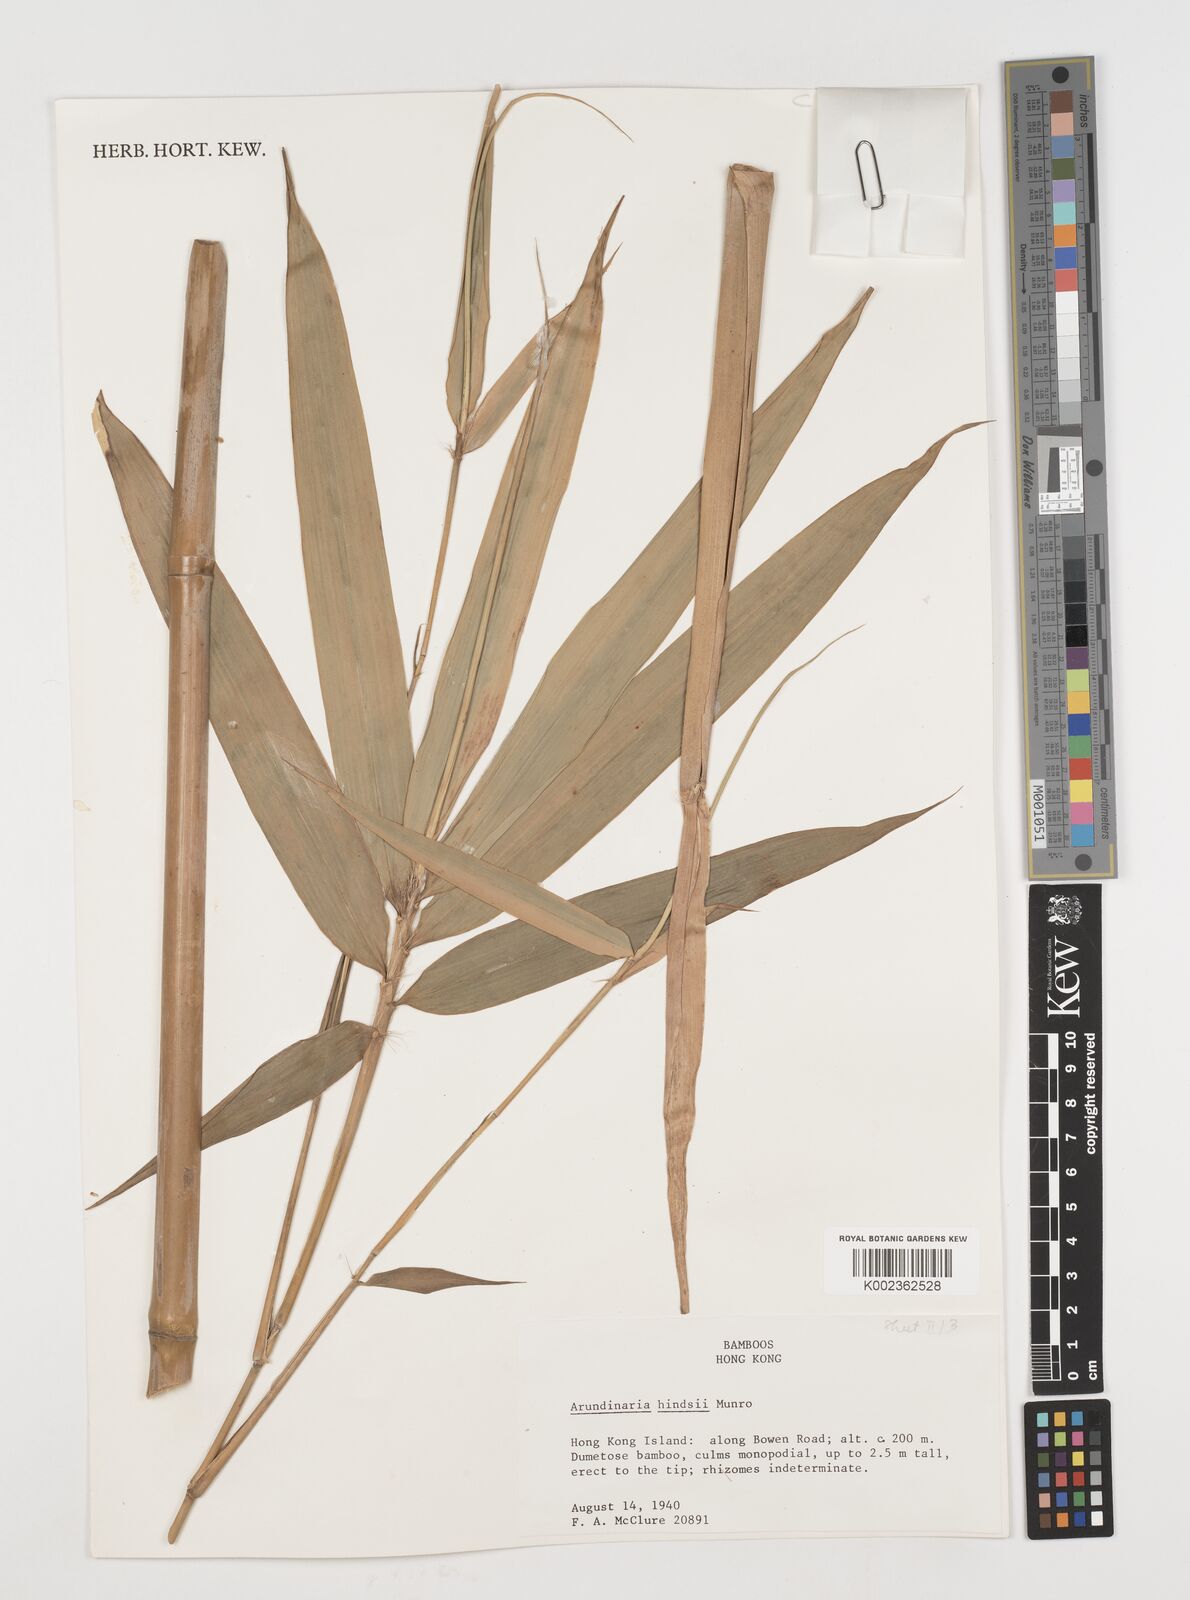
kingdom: Plantae
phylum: Tracheophyta
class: Liliopsida
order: Poales
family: Poaceae
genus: Pseudosasa
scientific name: Pseudosasa hindsii
